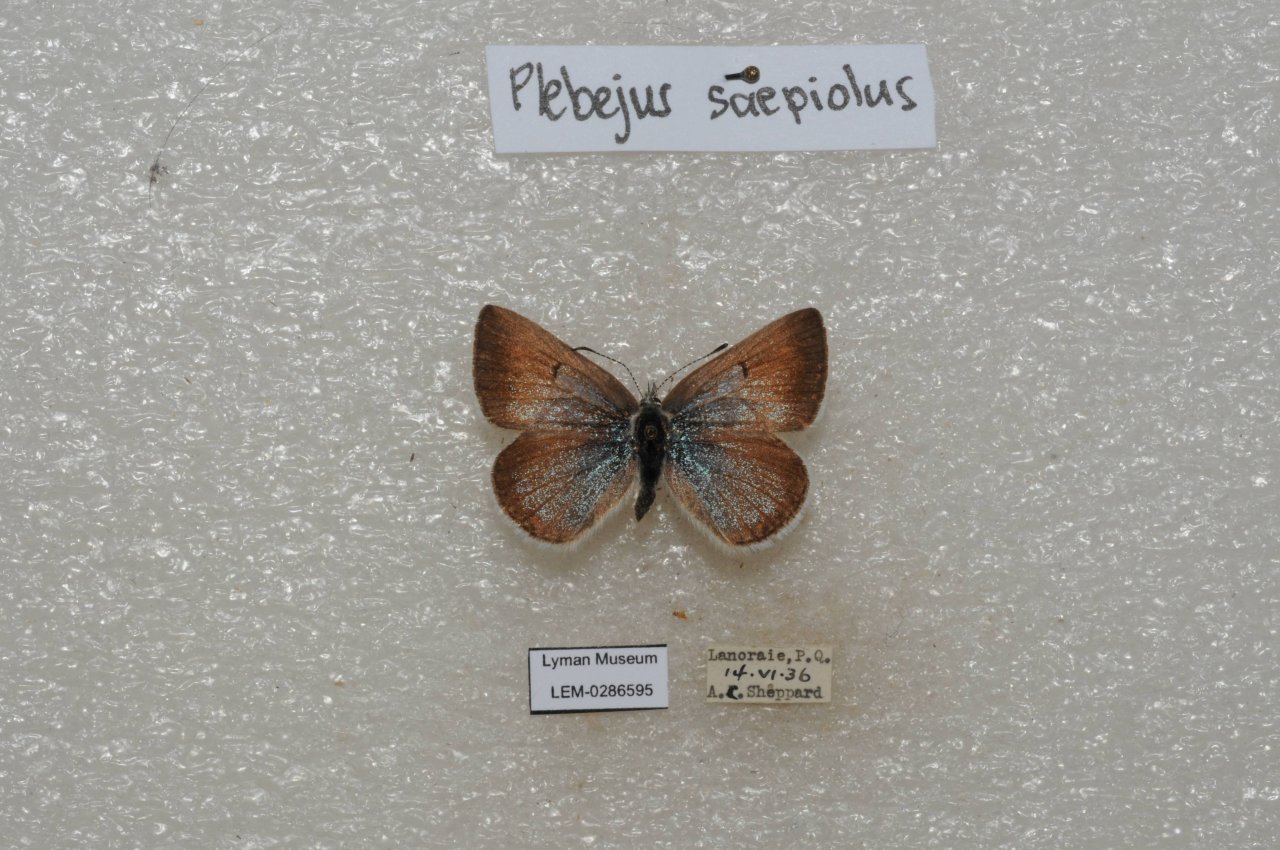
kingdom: Animalia
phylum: Arthropoda
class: Insecta
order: Lepidoptera
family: Lycaenidae
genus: Plebejus
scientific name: Plebejus saepiolus
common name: Greenish Blue
